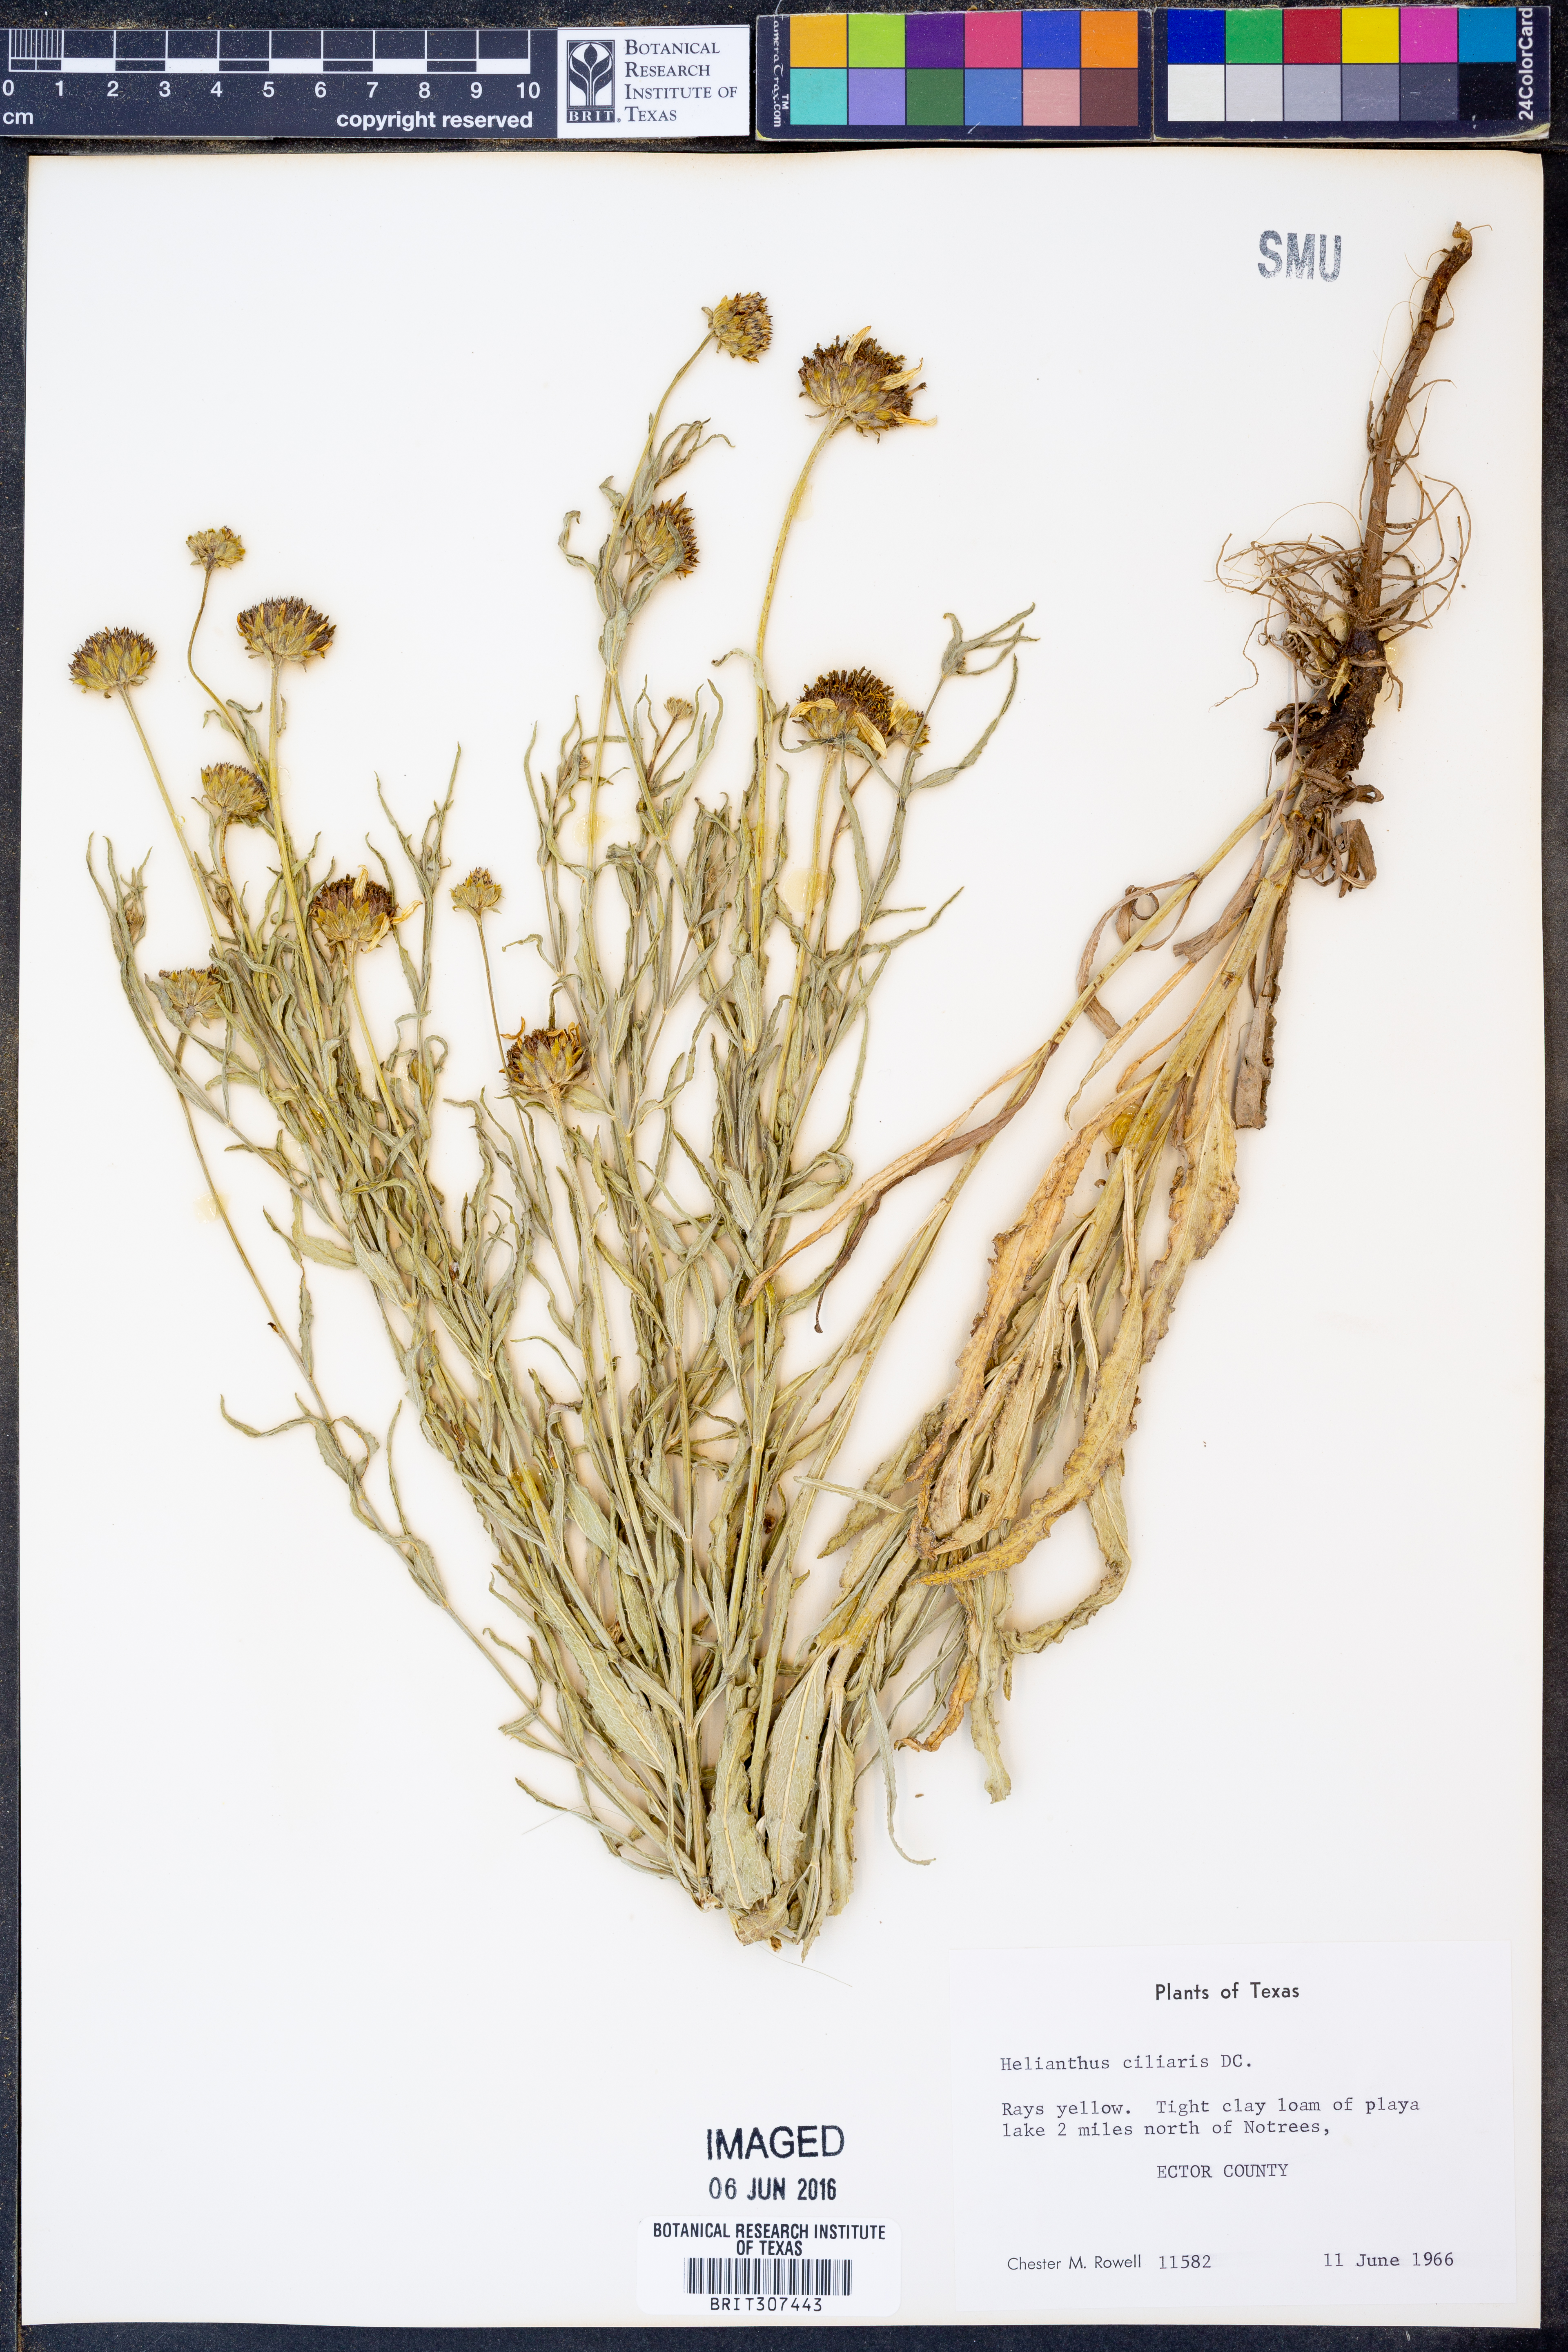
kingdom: Plantae
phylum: Tracheophyta
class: Magnoliopsida
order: Asterales
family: Asteraceae
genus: Helianthus
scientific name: Helianthus ciliaris
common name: Texas blueweed
